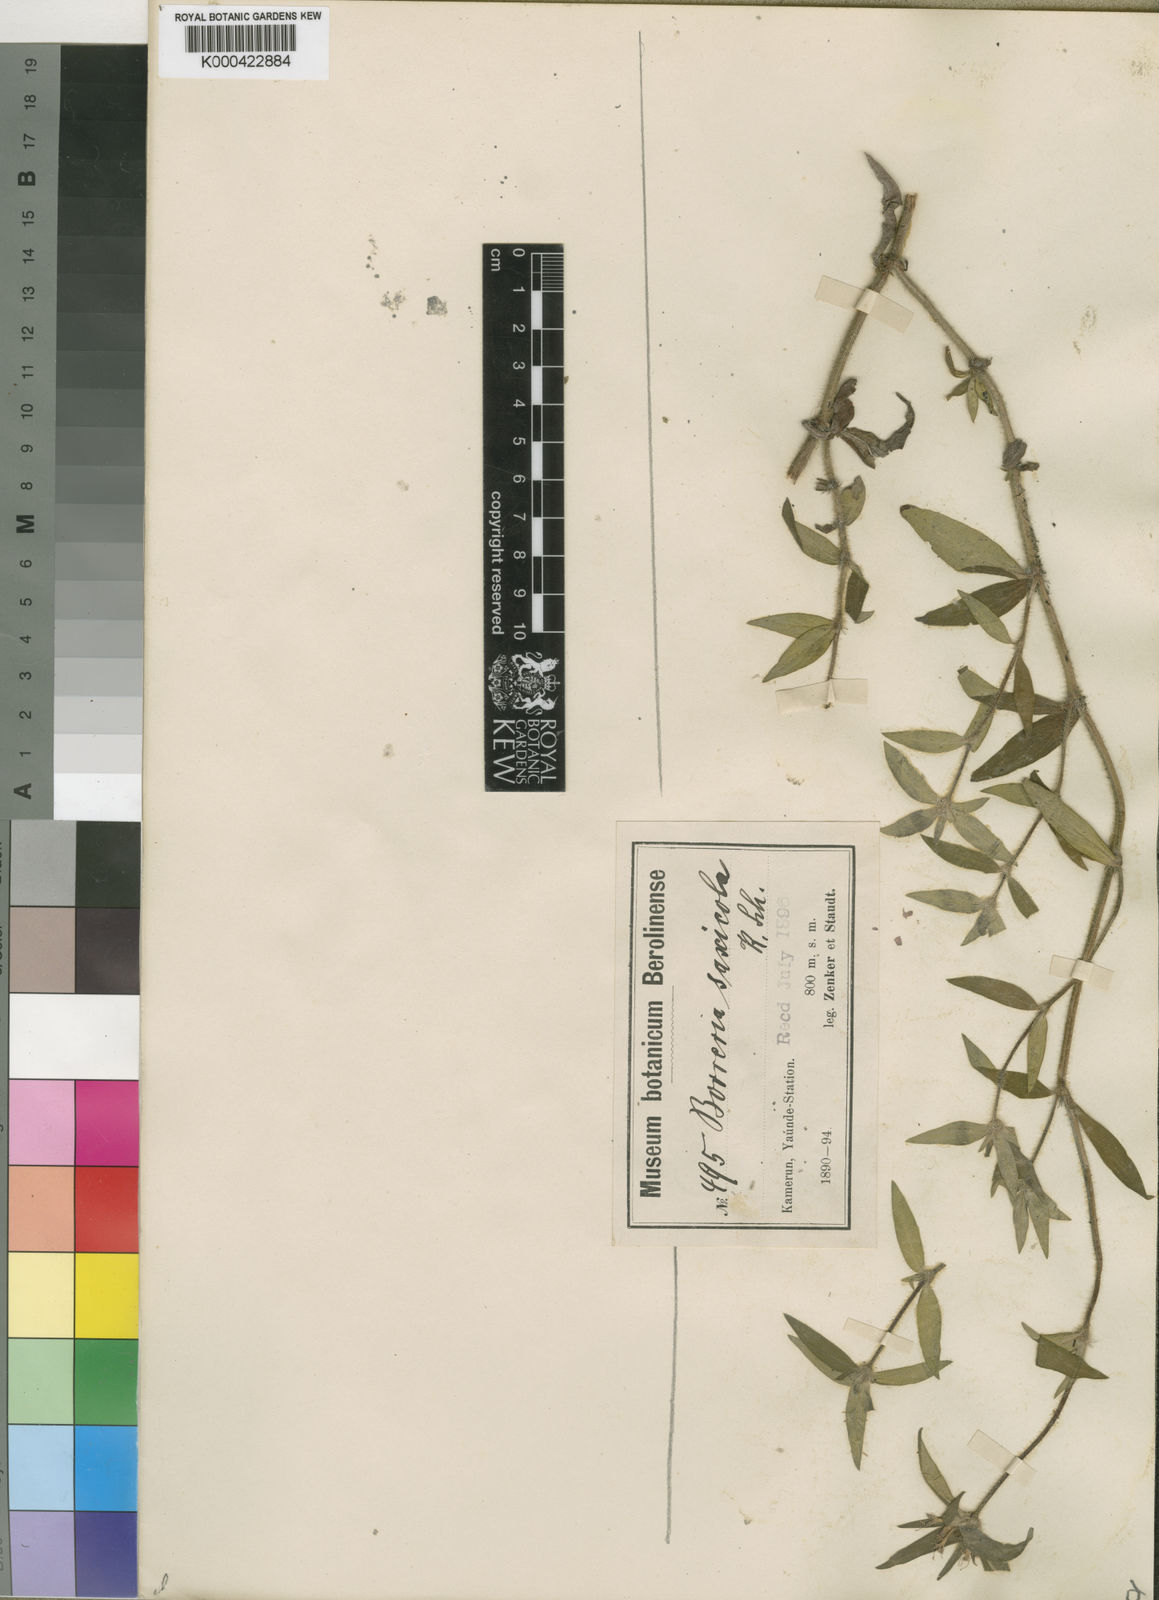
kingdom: Plantae
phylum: Tracheophyta
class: Magnoliopsida
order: Gentianales
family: Rubiaceae
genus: Spermacoce
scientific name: Spermacoce spermacocina
